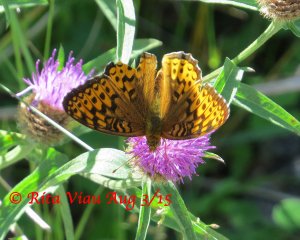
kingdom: Animalia
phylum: Arthropoda
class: Insecta
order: Lepidoptera
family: Nymphalidae
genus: Speyeria
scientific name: Speyeria atlantis
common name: Atlantis Fritillary
